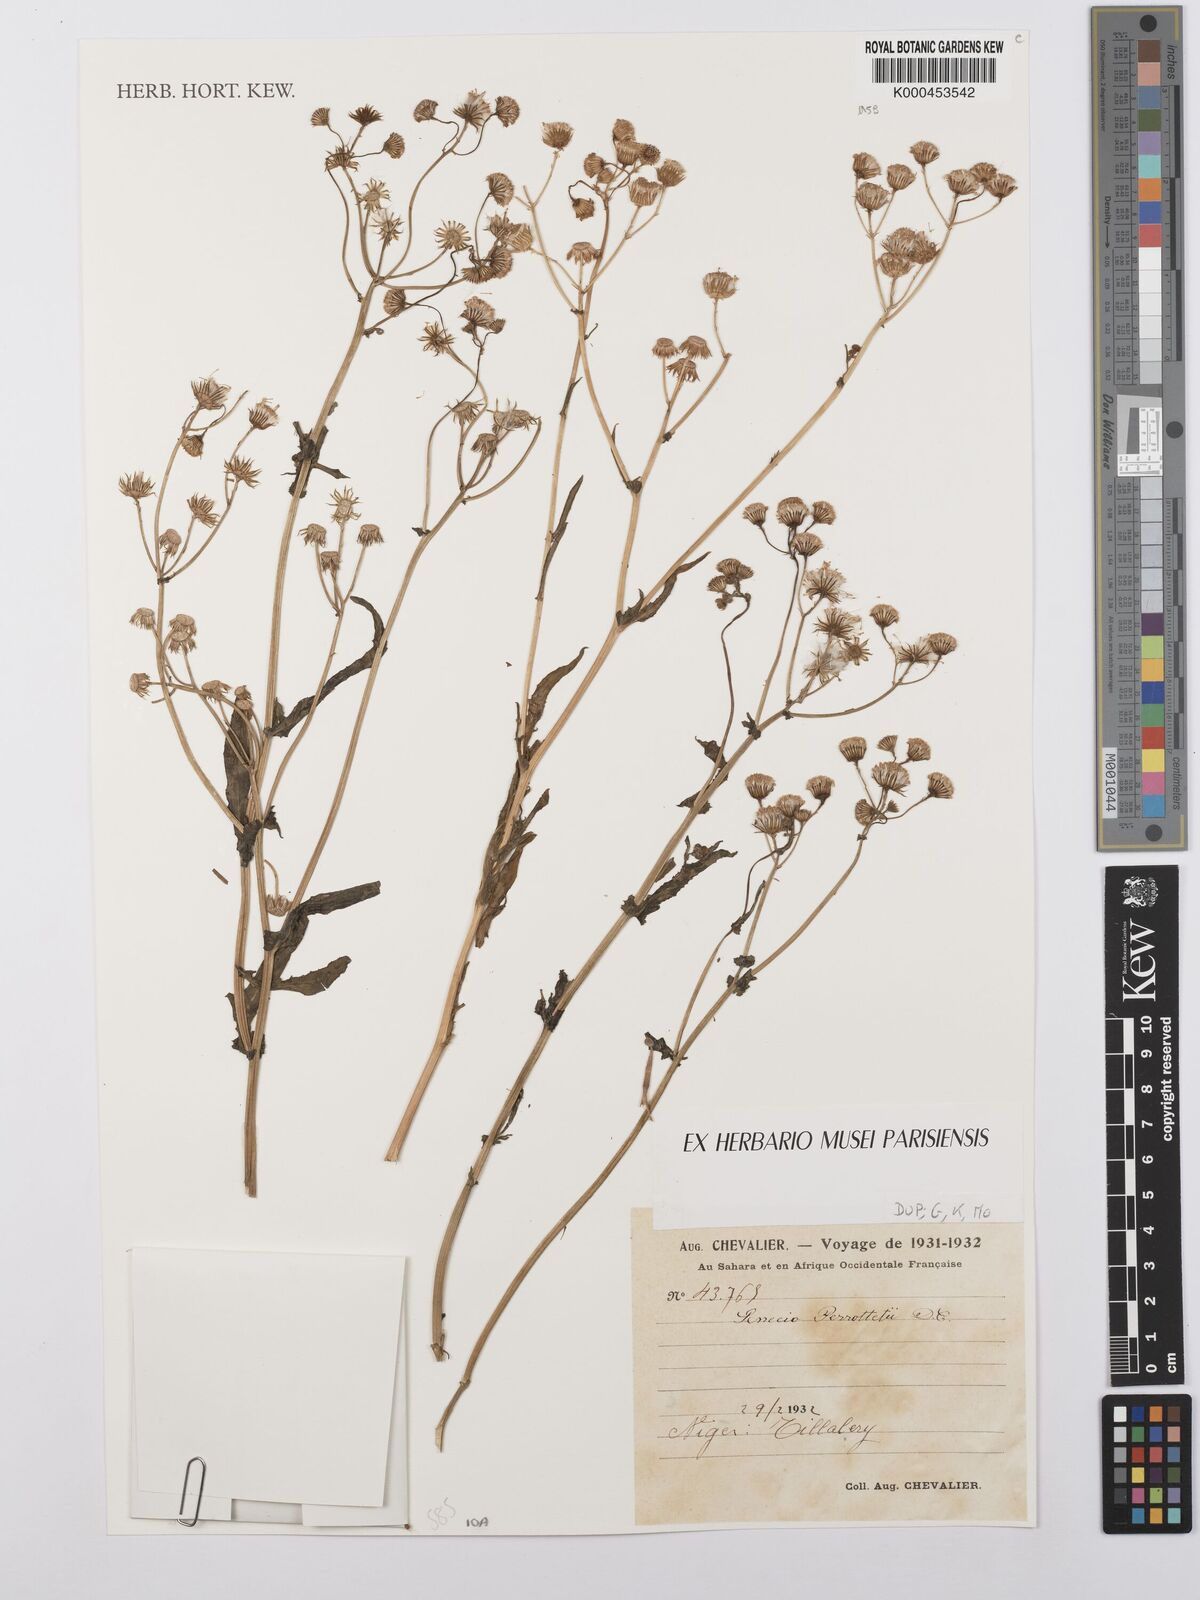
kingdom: Plantae
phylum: Tracheophyta
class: Magnoliopsida
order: Asterales
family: Asteraceae
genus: Senecio
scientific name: Senecio perrottetii
